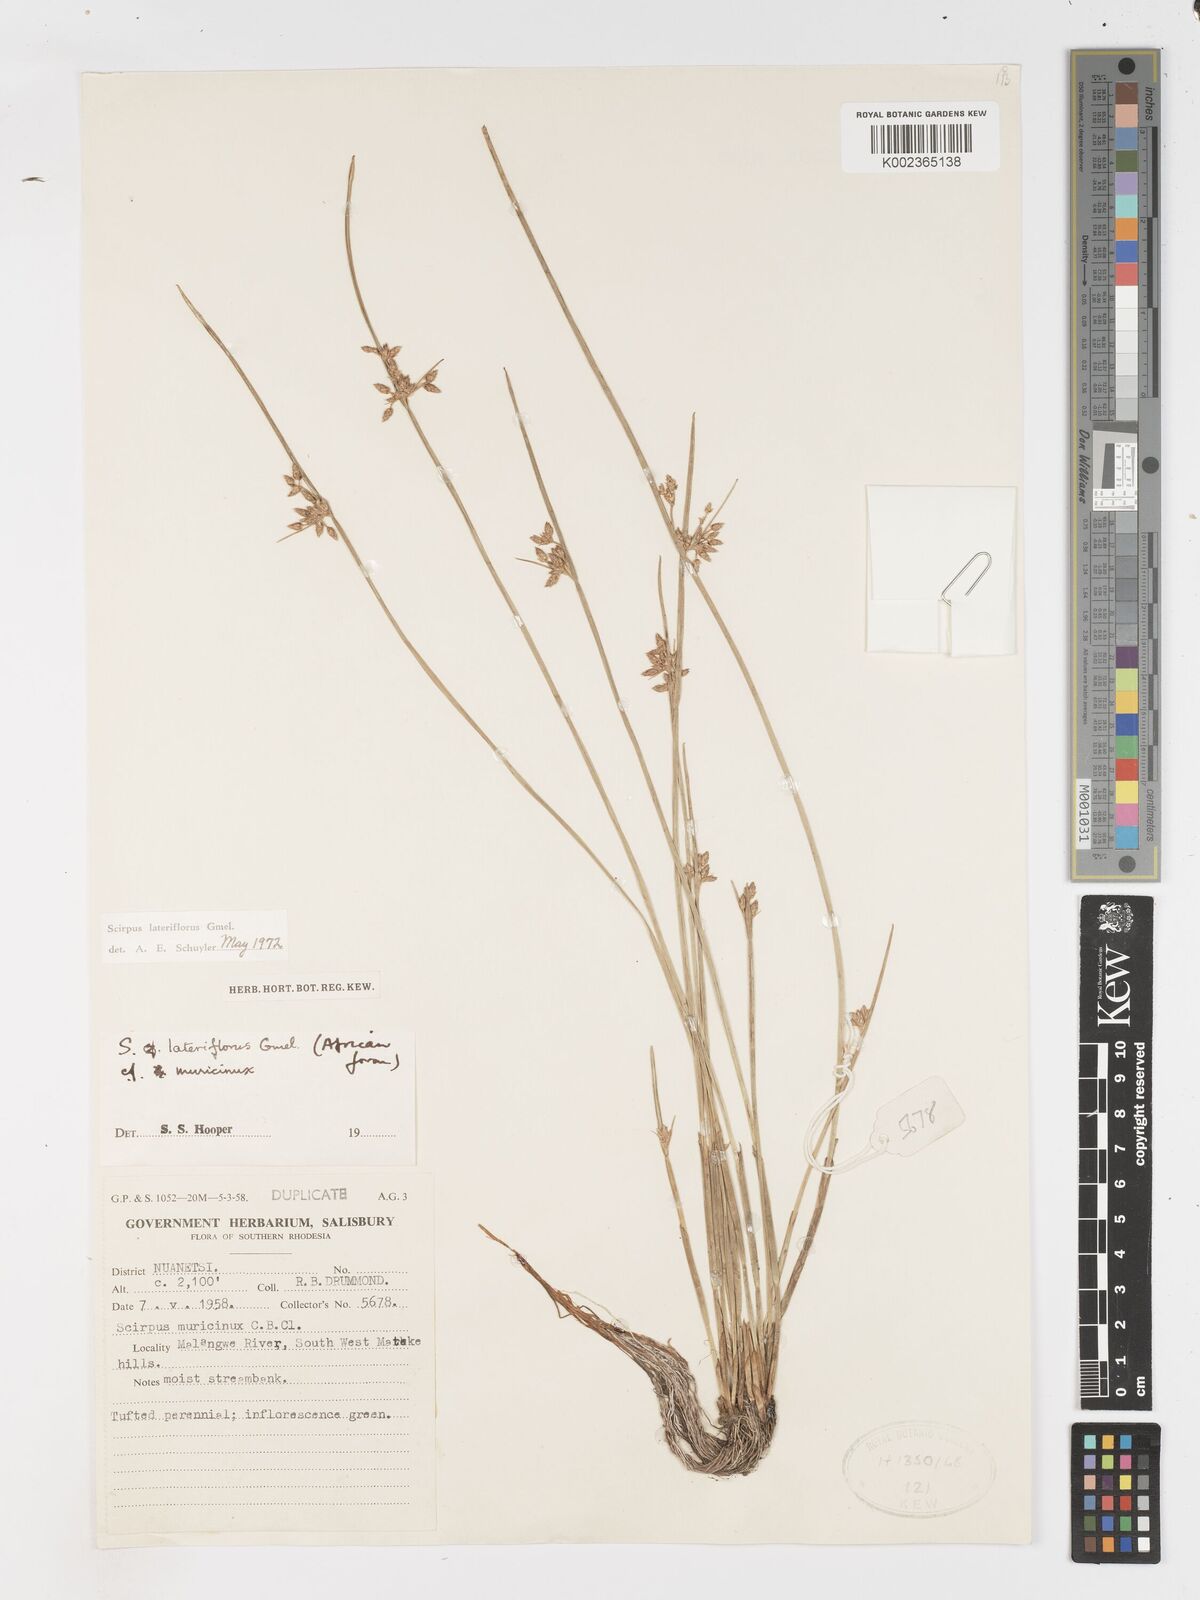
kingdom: Plantae
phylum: Tracheophyta
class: Liliopsida
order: Poales
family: Cyperaceae
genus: Schoenoplectiella
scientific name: Schoenoplectiella lateriflora
